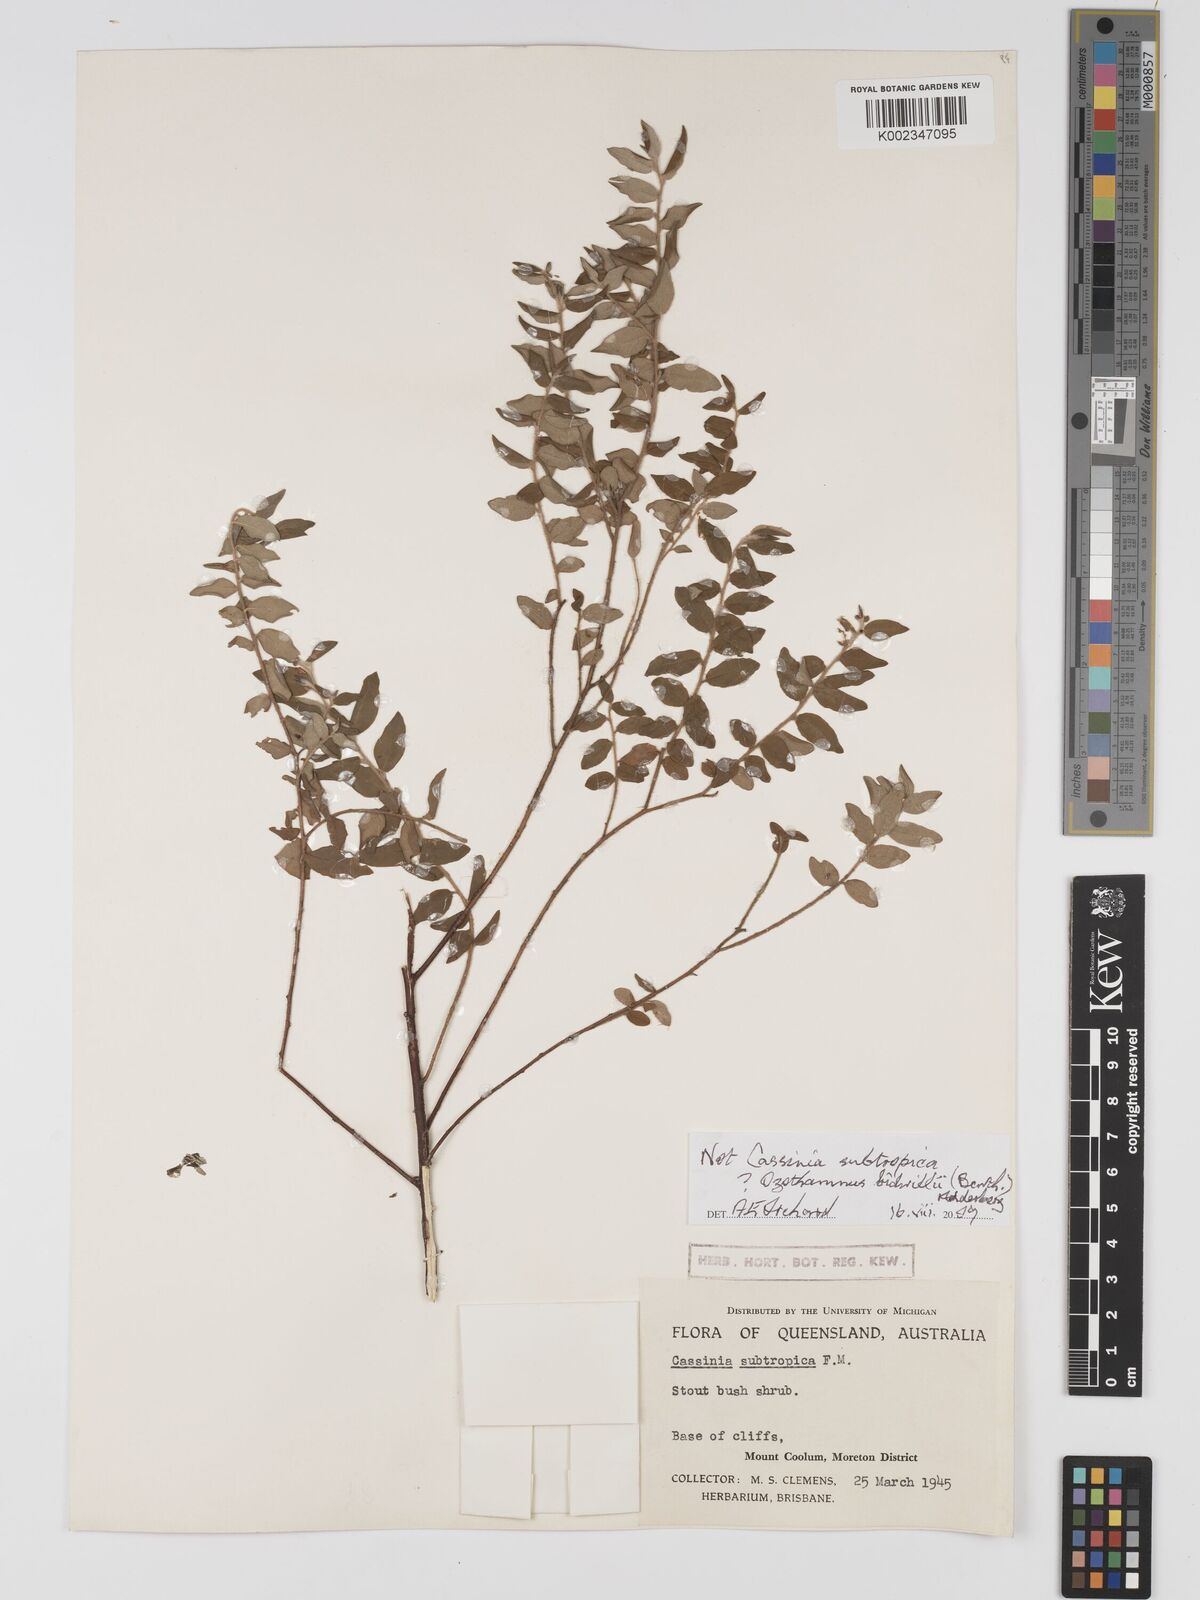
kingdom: Plantae
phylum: Tracheophyta
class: Magnoliopsida
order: Asterales
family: Asteraceae
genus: Ozothamnus
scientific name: Ozothamnus bidwillii
